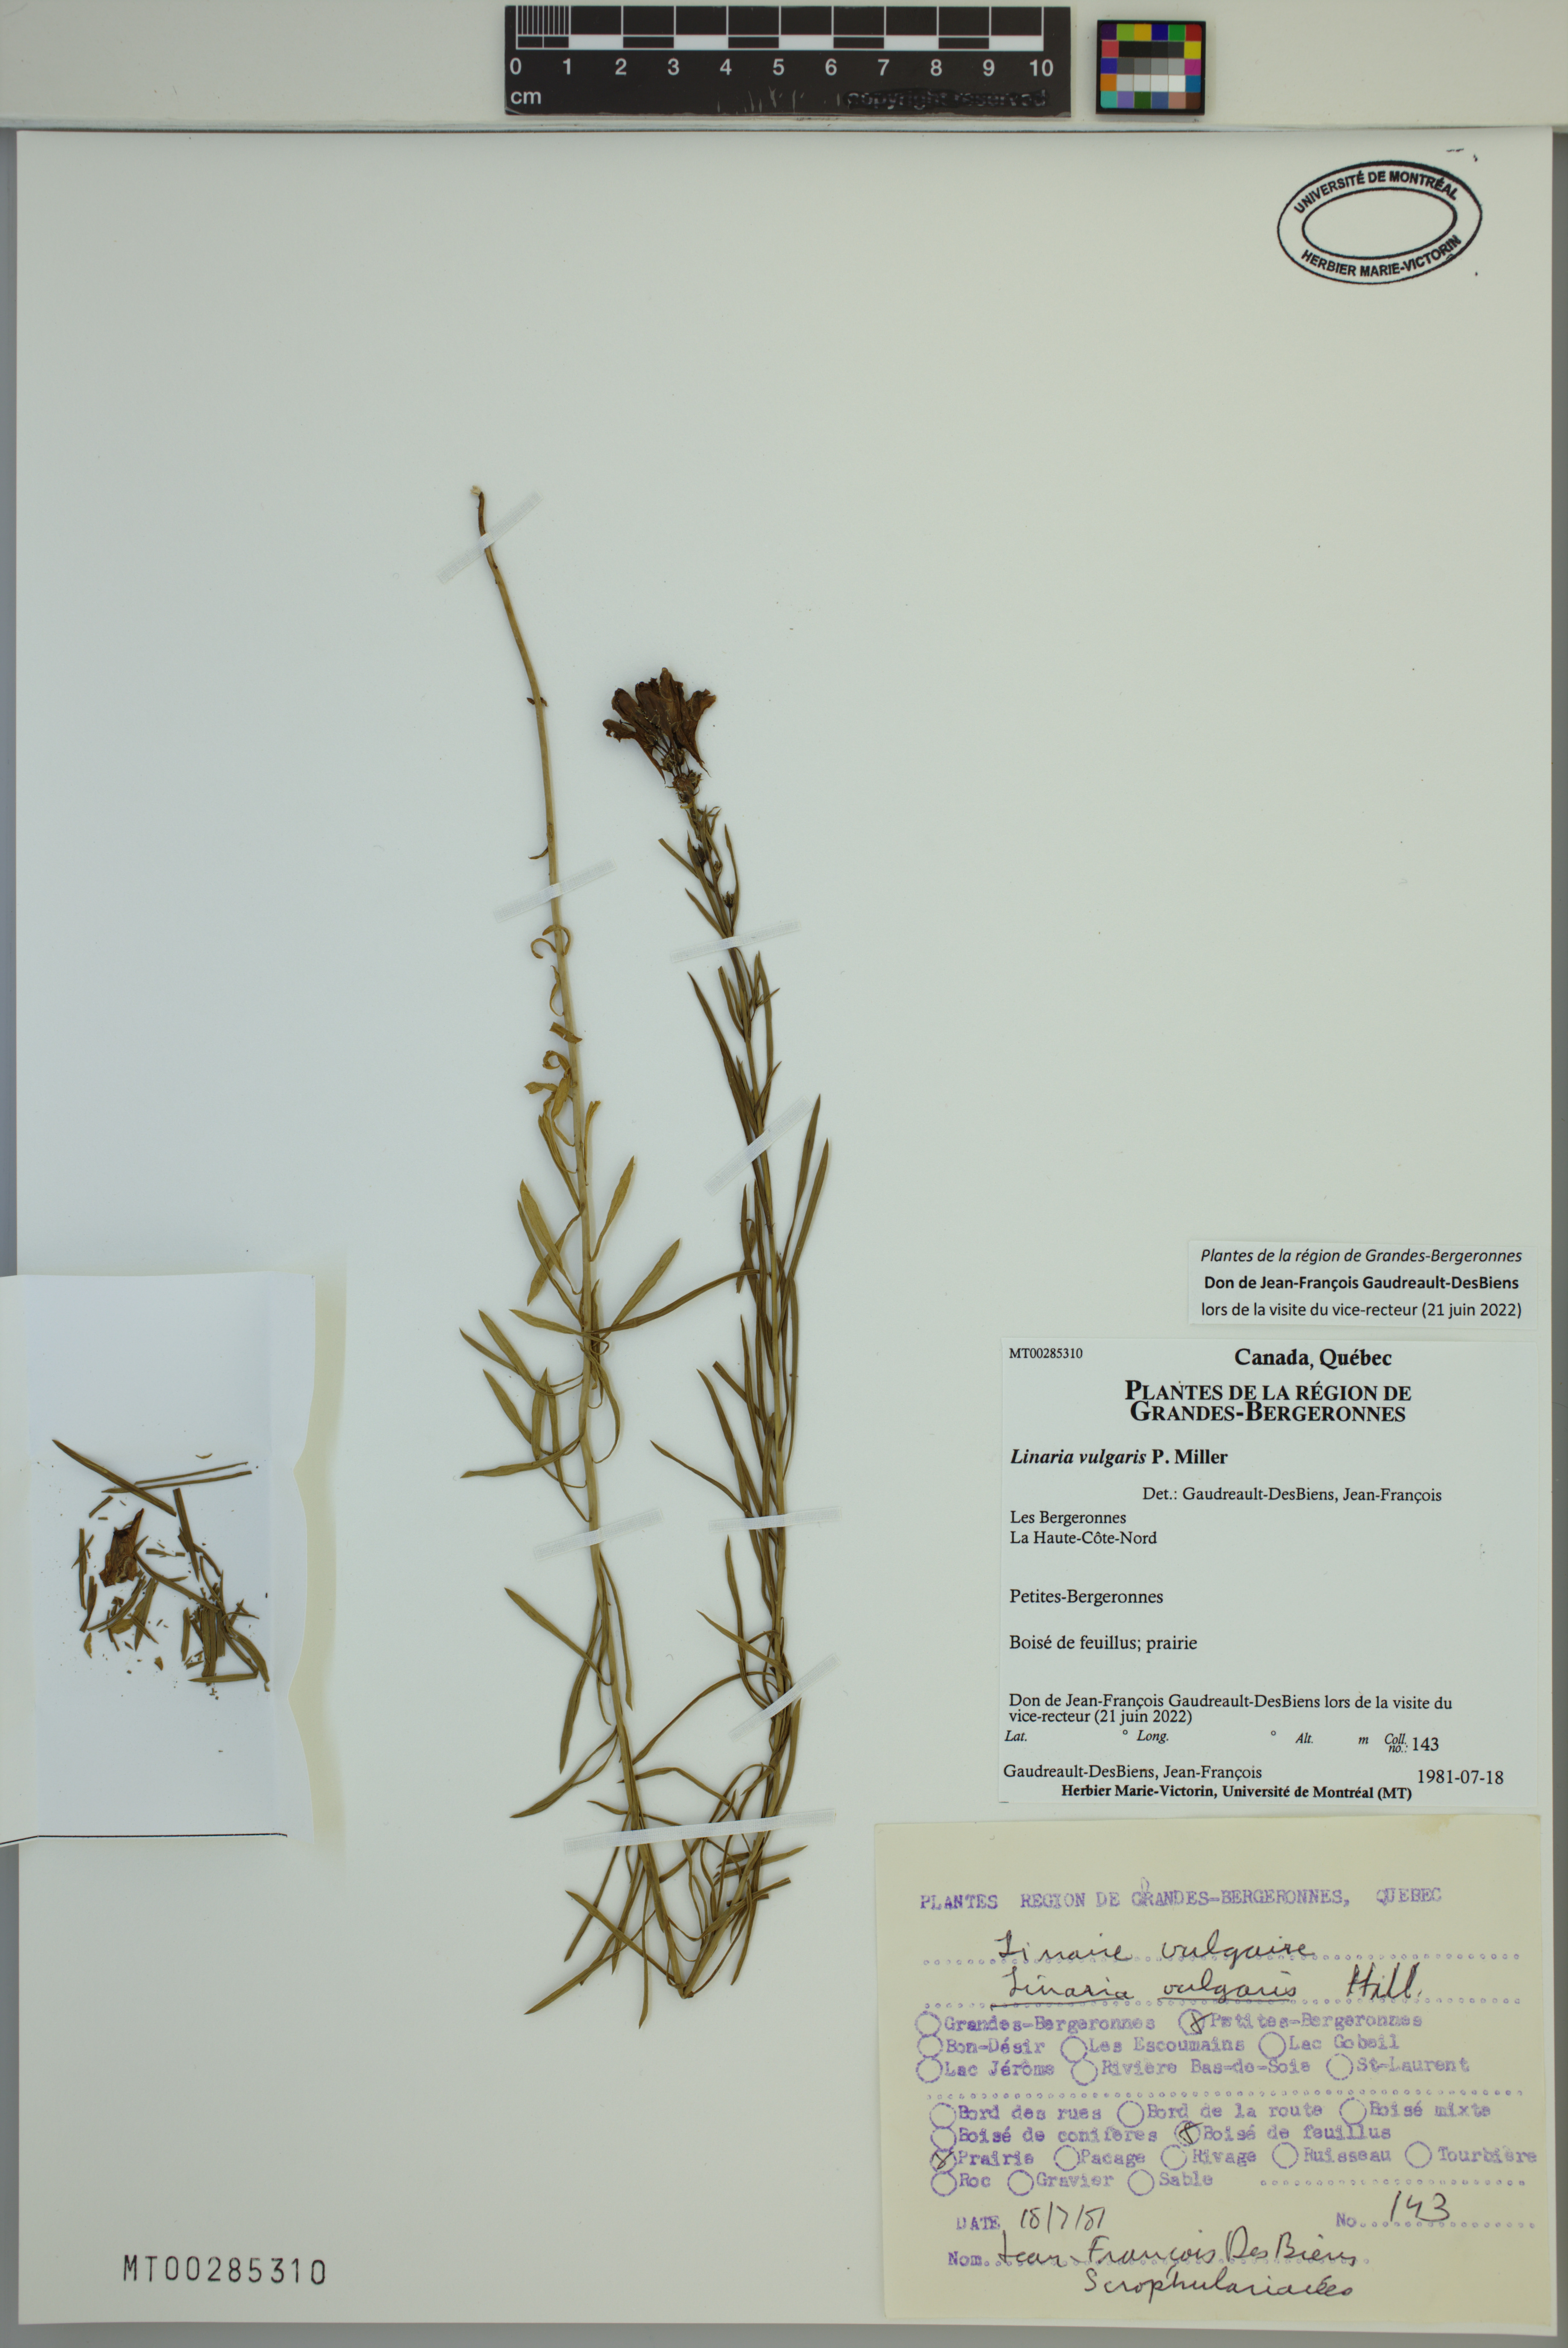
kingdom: Plantae
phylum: Tracheophyta
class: Magnoliopsida
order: Lamiales
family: Plantaginaceae
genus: Linaria
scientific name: Linaria vulgaris
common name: Butter and eggs
